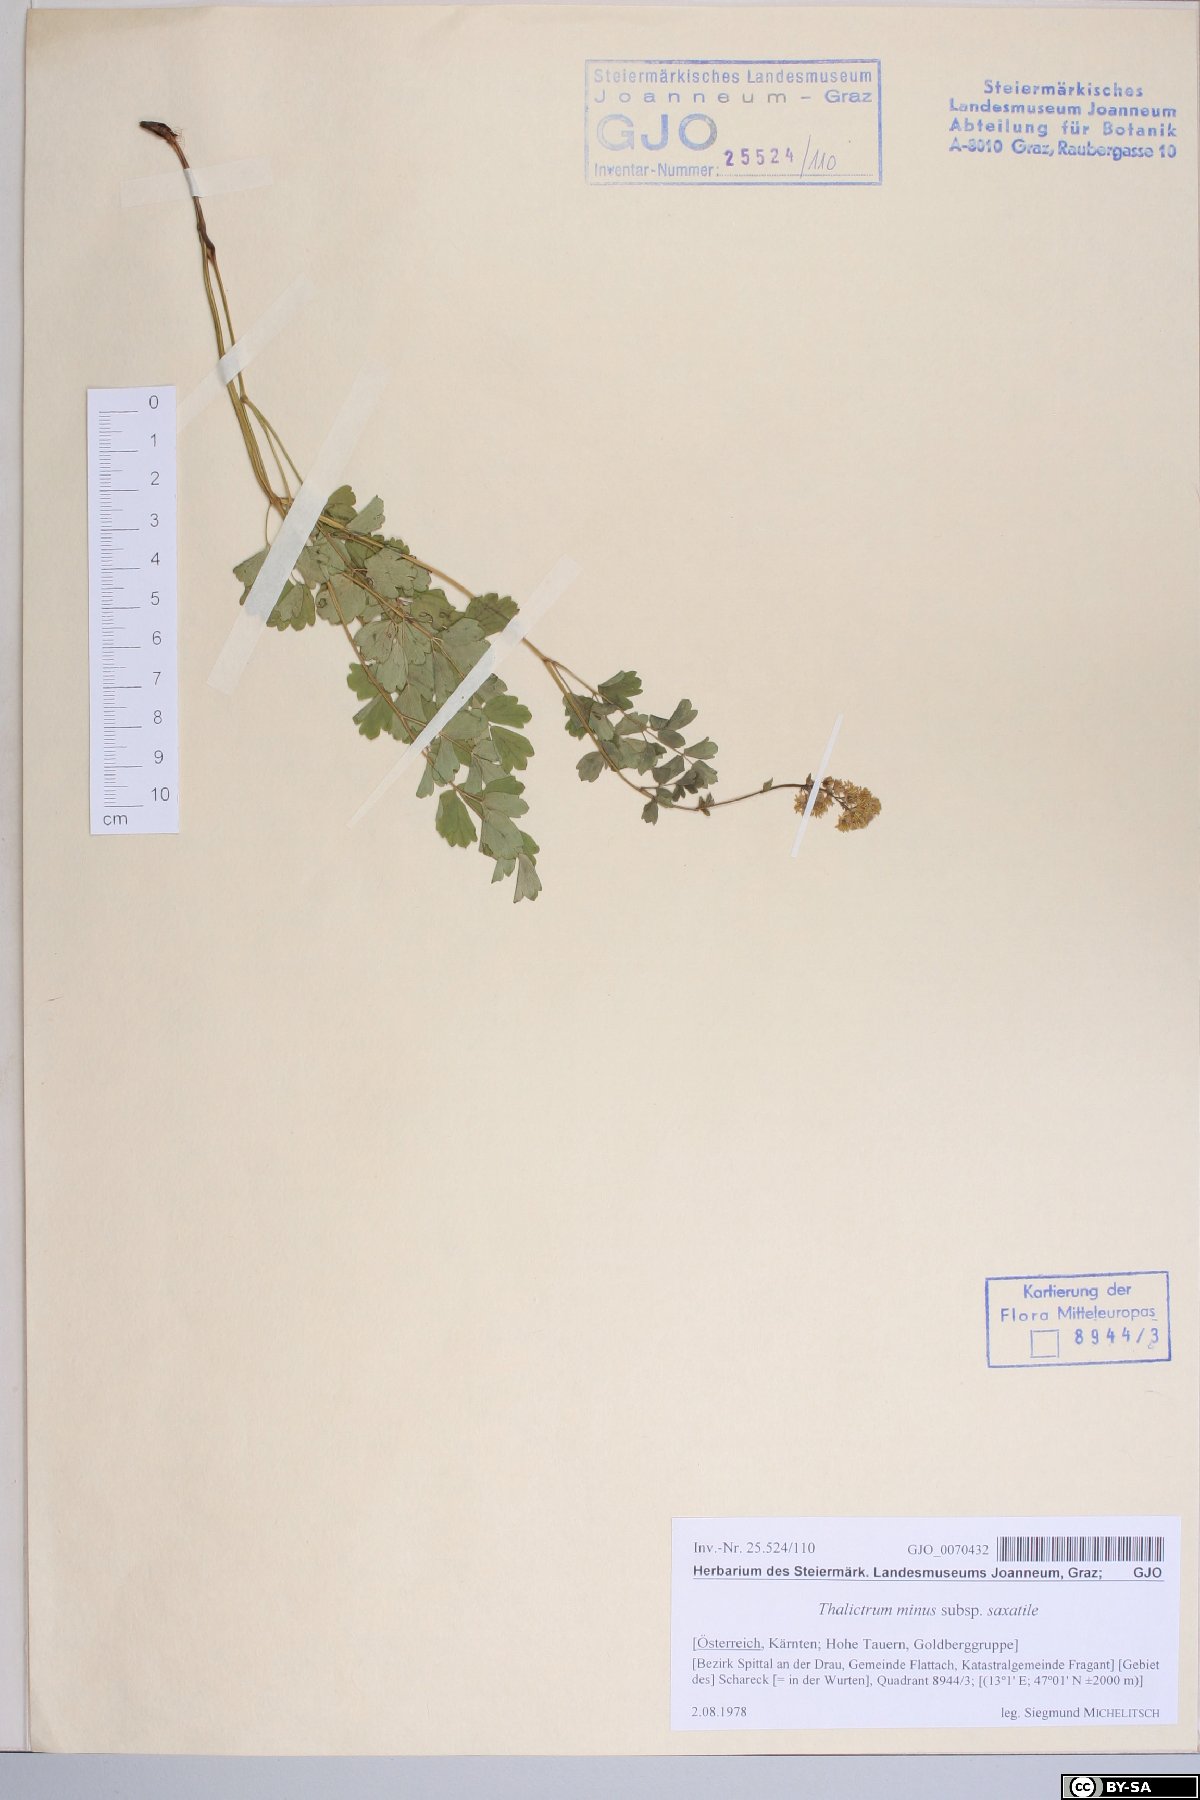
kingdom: Plantae
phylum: Tracheophyta
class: Magnoliopsida
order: Ranunculales
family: Ranunculaceae
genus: Thalictrum
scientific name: Thalictrum minus
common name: Lesser meadow-rue
